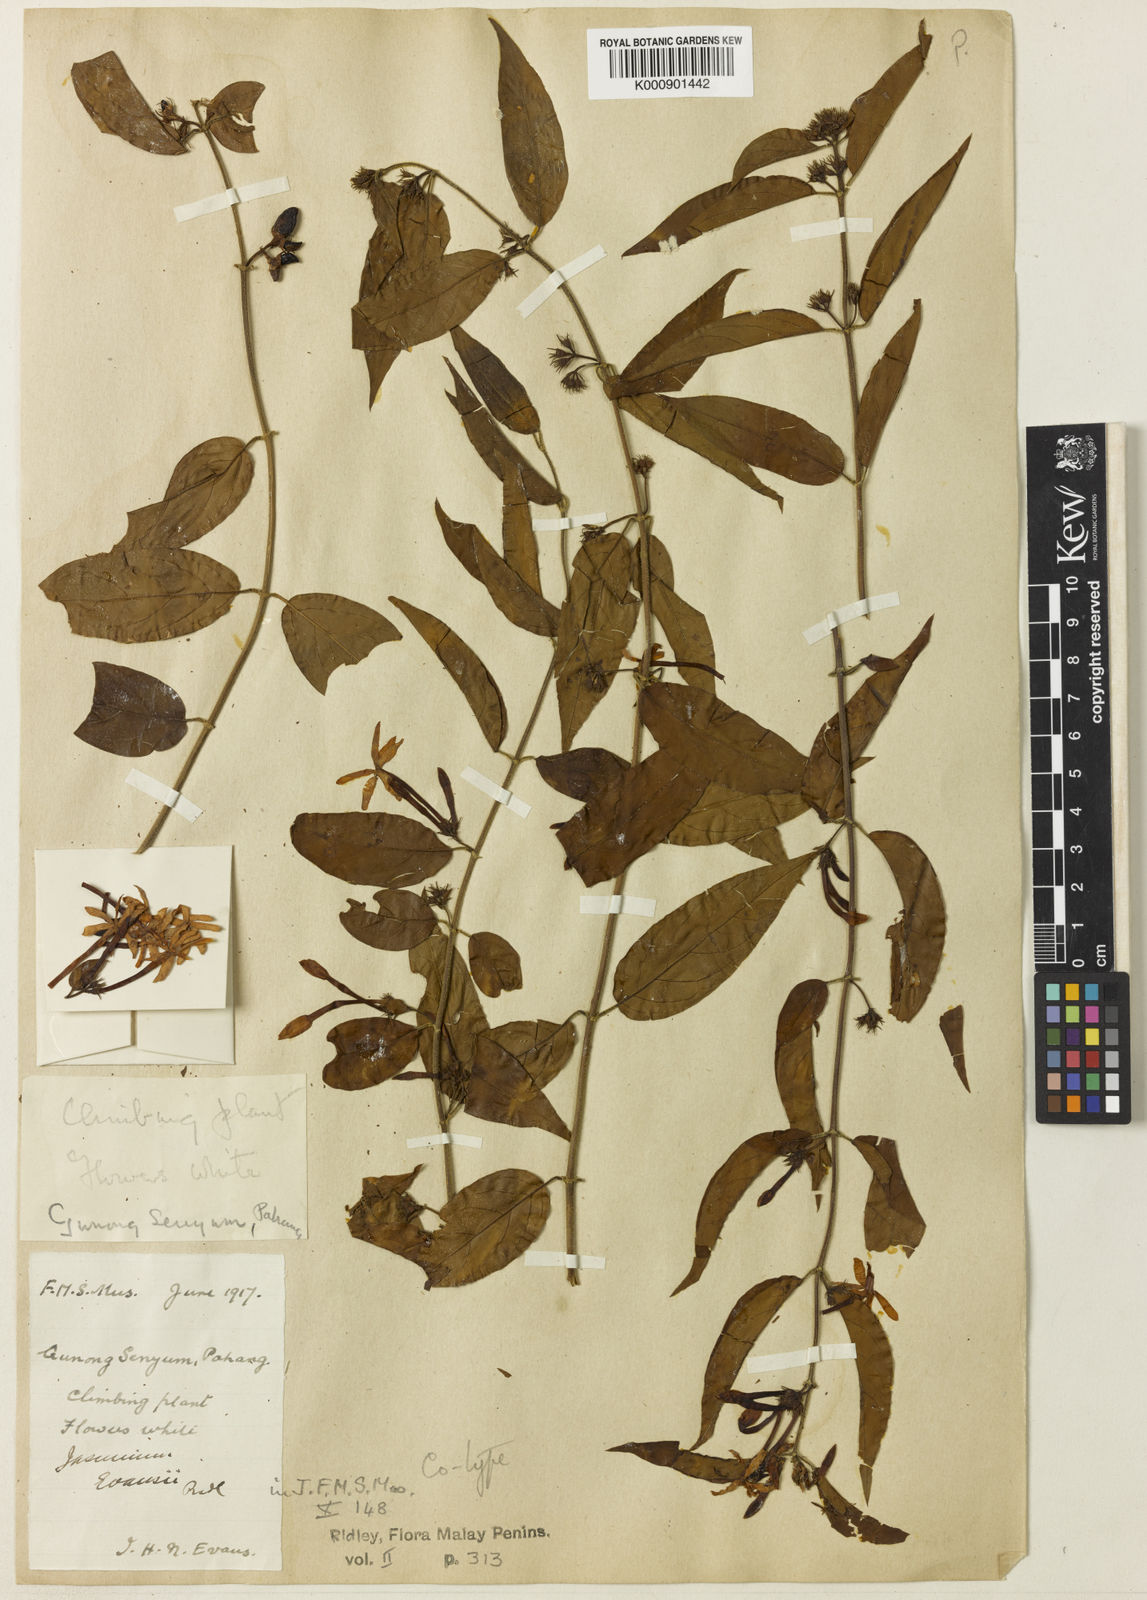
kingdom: Plantae
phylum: Tracheophyta
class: Magnoliopsida
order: Lamiales
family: Oleaceae
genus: Jasminum
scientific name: Jasminum elongatum
